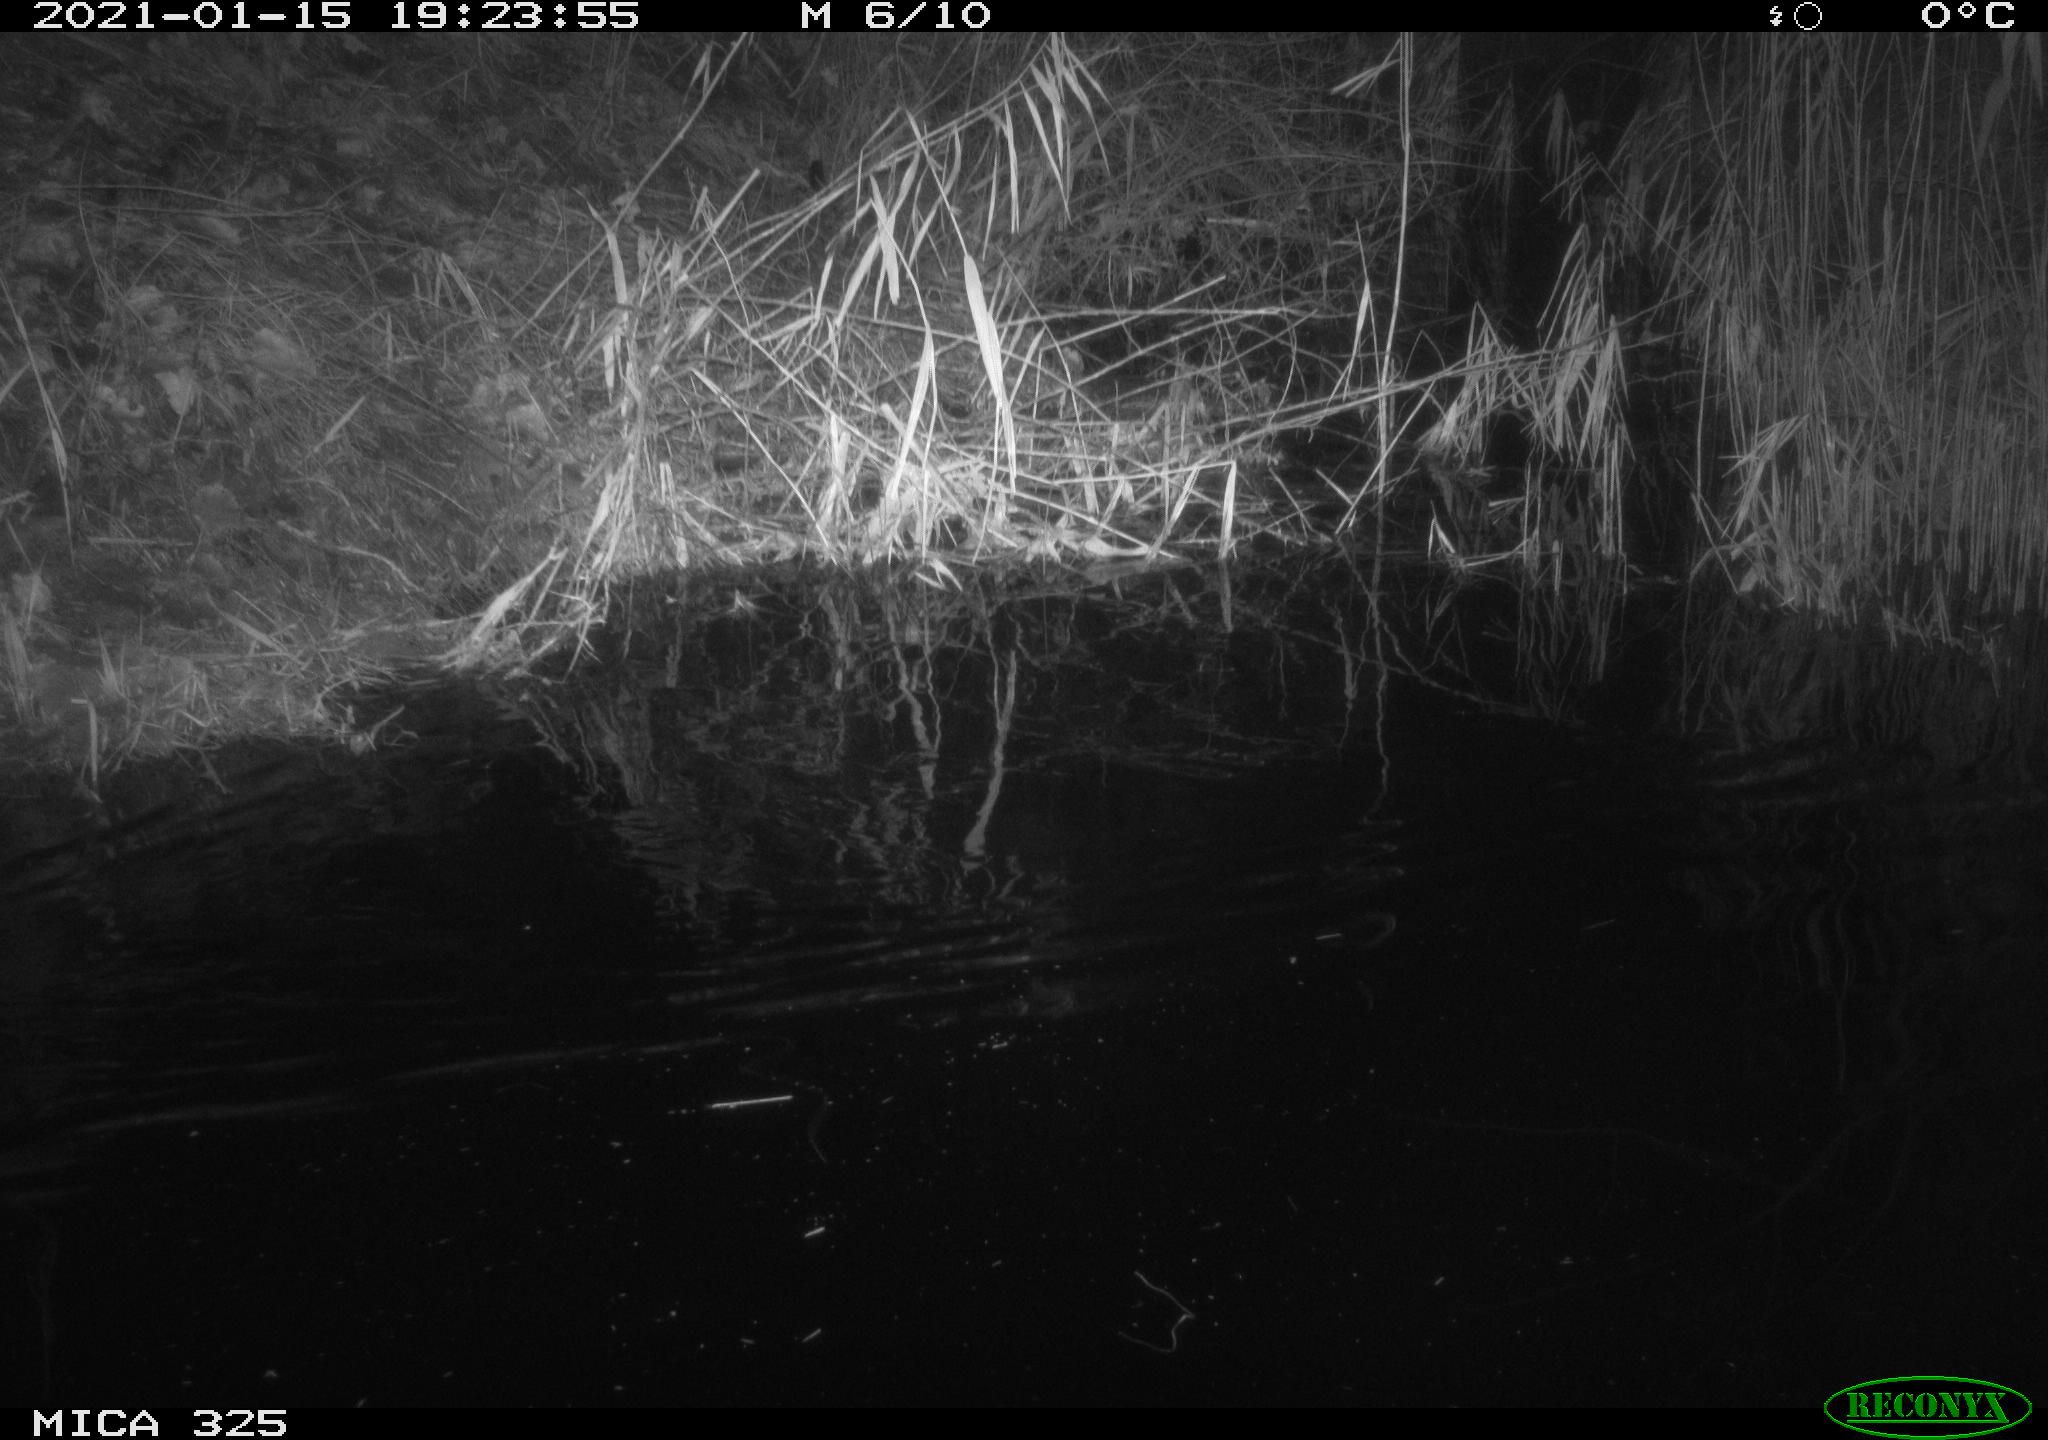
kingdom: Animalia
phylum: Chordata
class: Mammalia
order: Rodentia
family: Myocastoridae
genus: Myocastor
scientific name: Myocastor coypus
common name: Coypu
